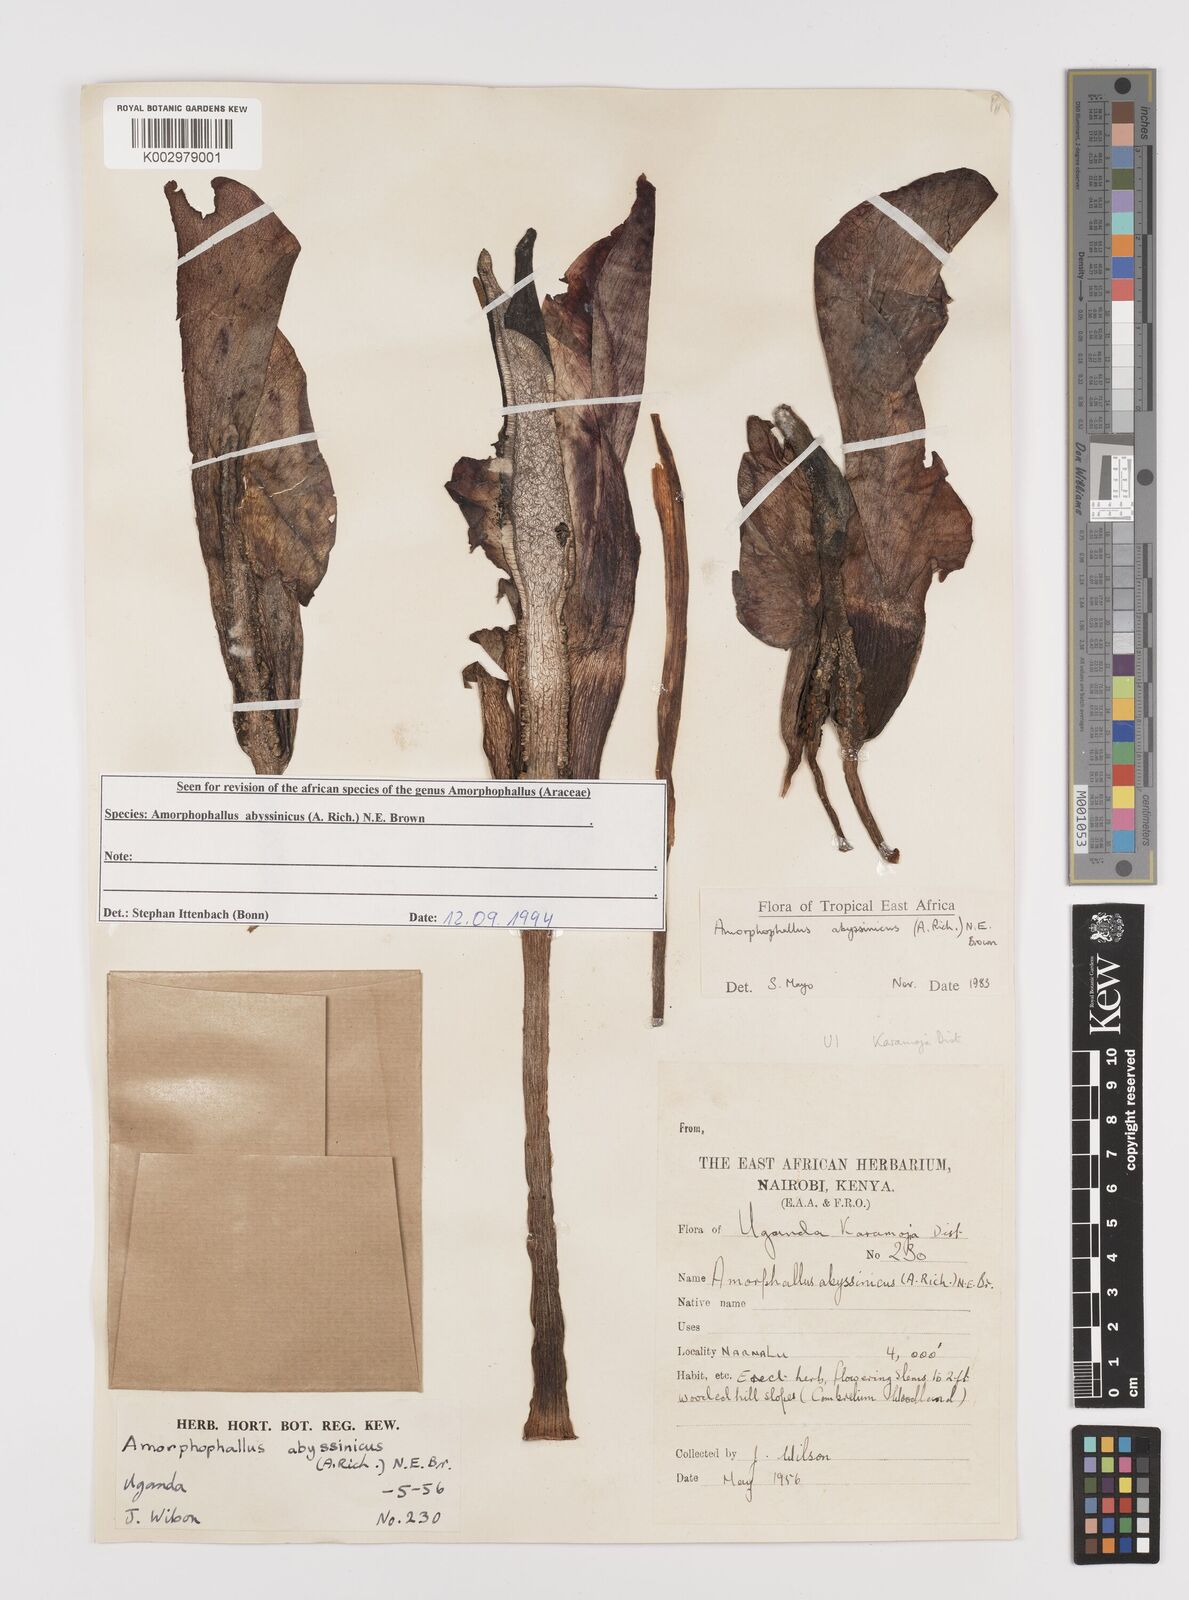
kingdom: Plantae
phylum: Tracheophyta
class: Liliopsida
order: Alismatales
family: Araceae
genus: Amorphophallus
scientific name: Amorphophallus abyssinicus
